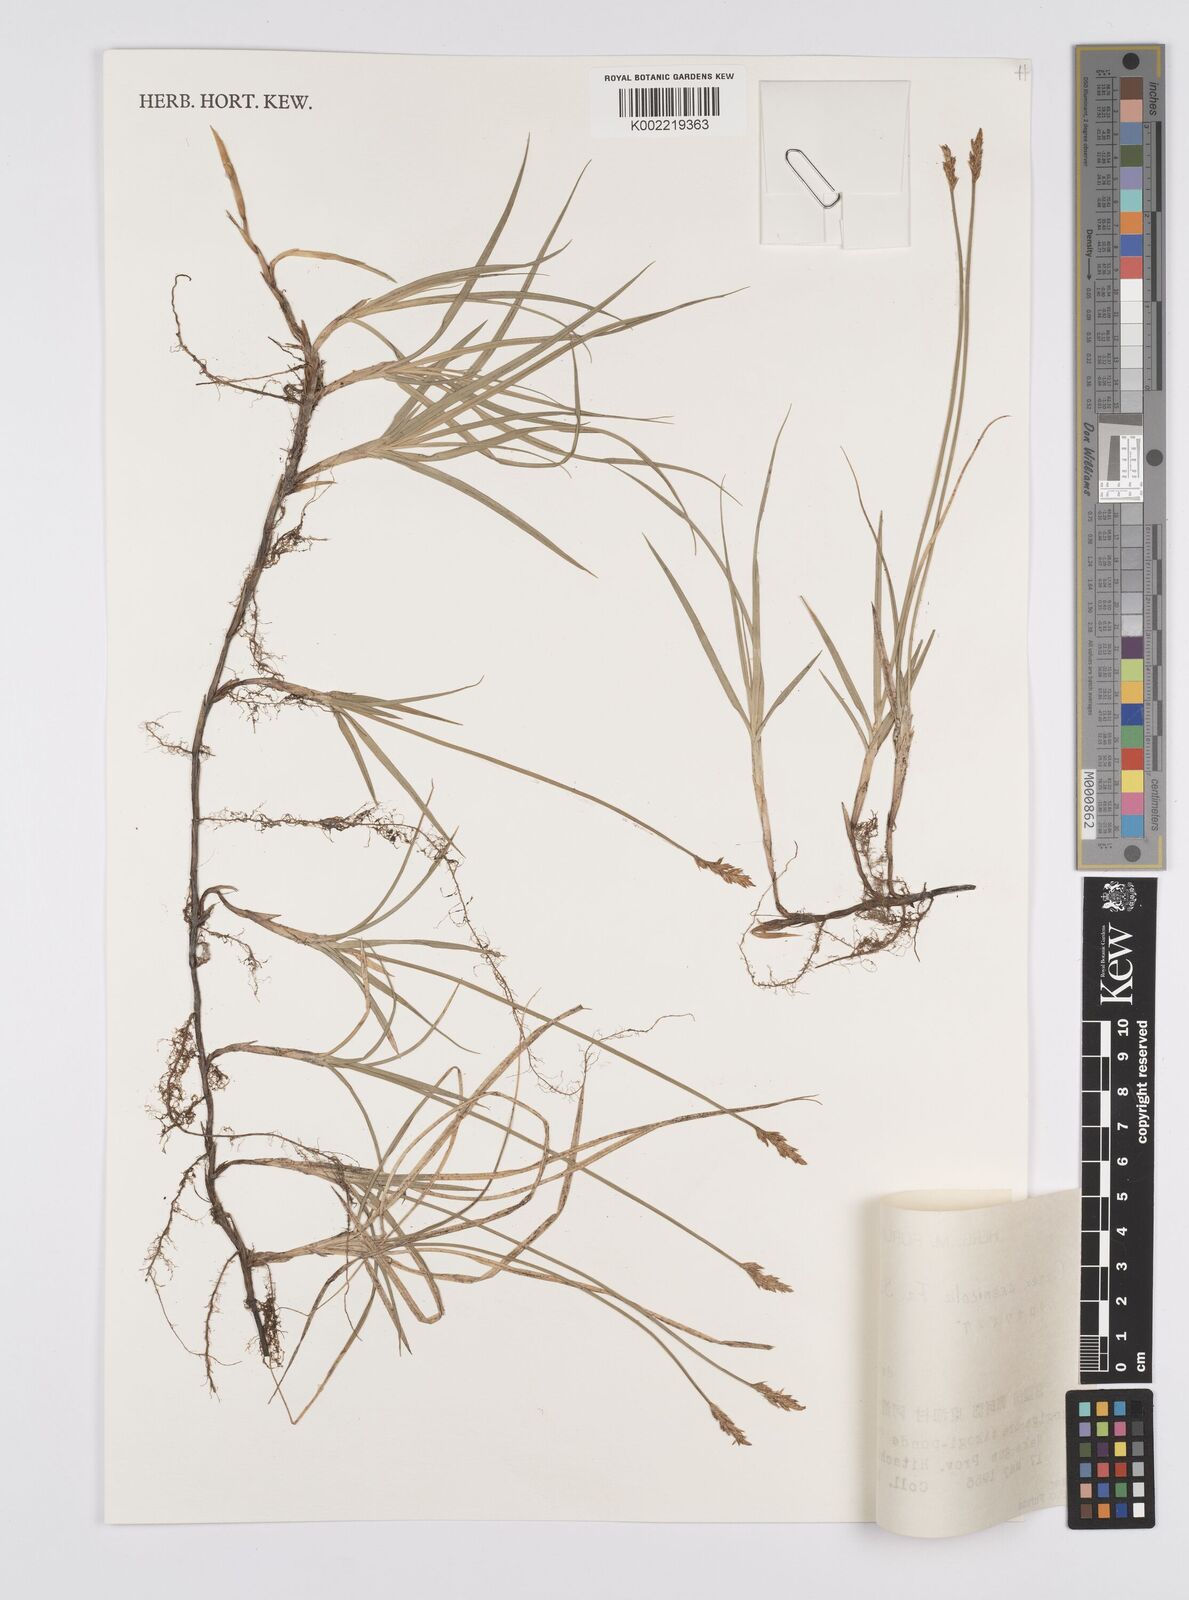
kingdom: Plantae
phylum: Tracheophyta
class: Liliopsida
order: Poales
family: Cyperaceae
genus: Carex
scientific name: Carex arenicola
